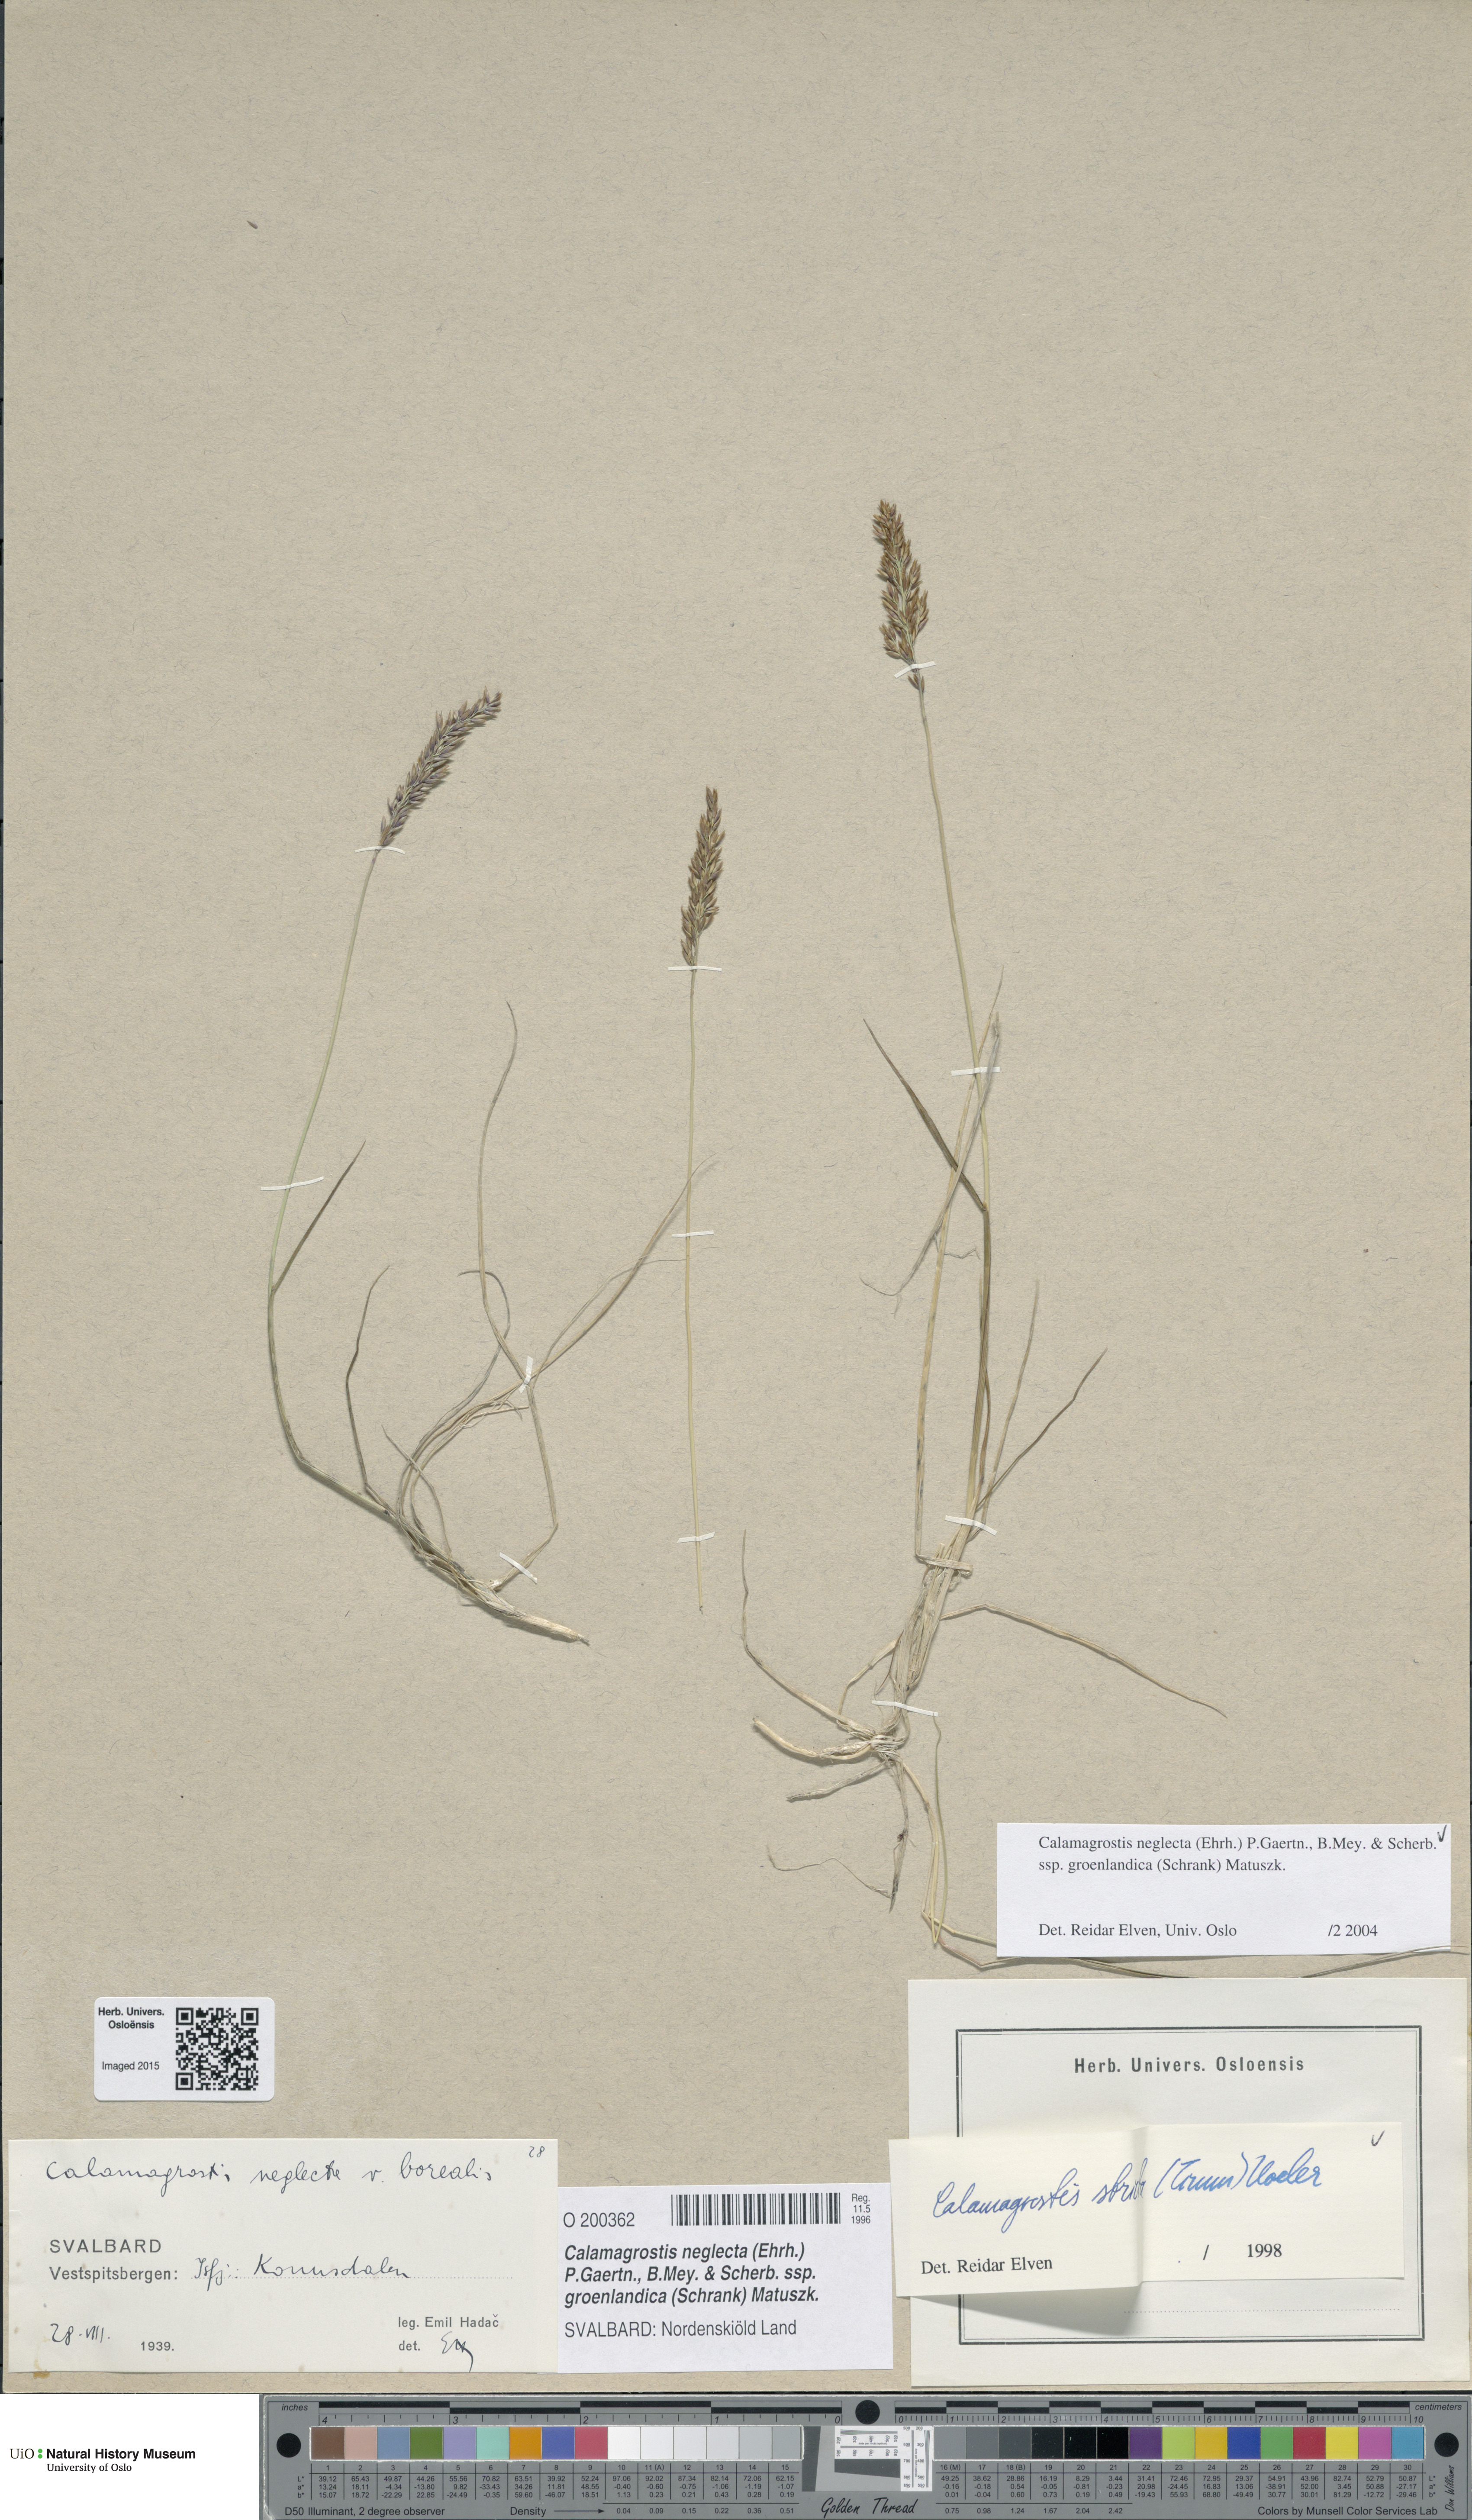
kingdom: Plantae
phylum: Tracheophyta
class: Liliopsida
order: Poales
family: Poaceae
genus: Calamagrostis
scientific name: Calamagrostis stricta
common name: Narrow small-reed
